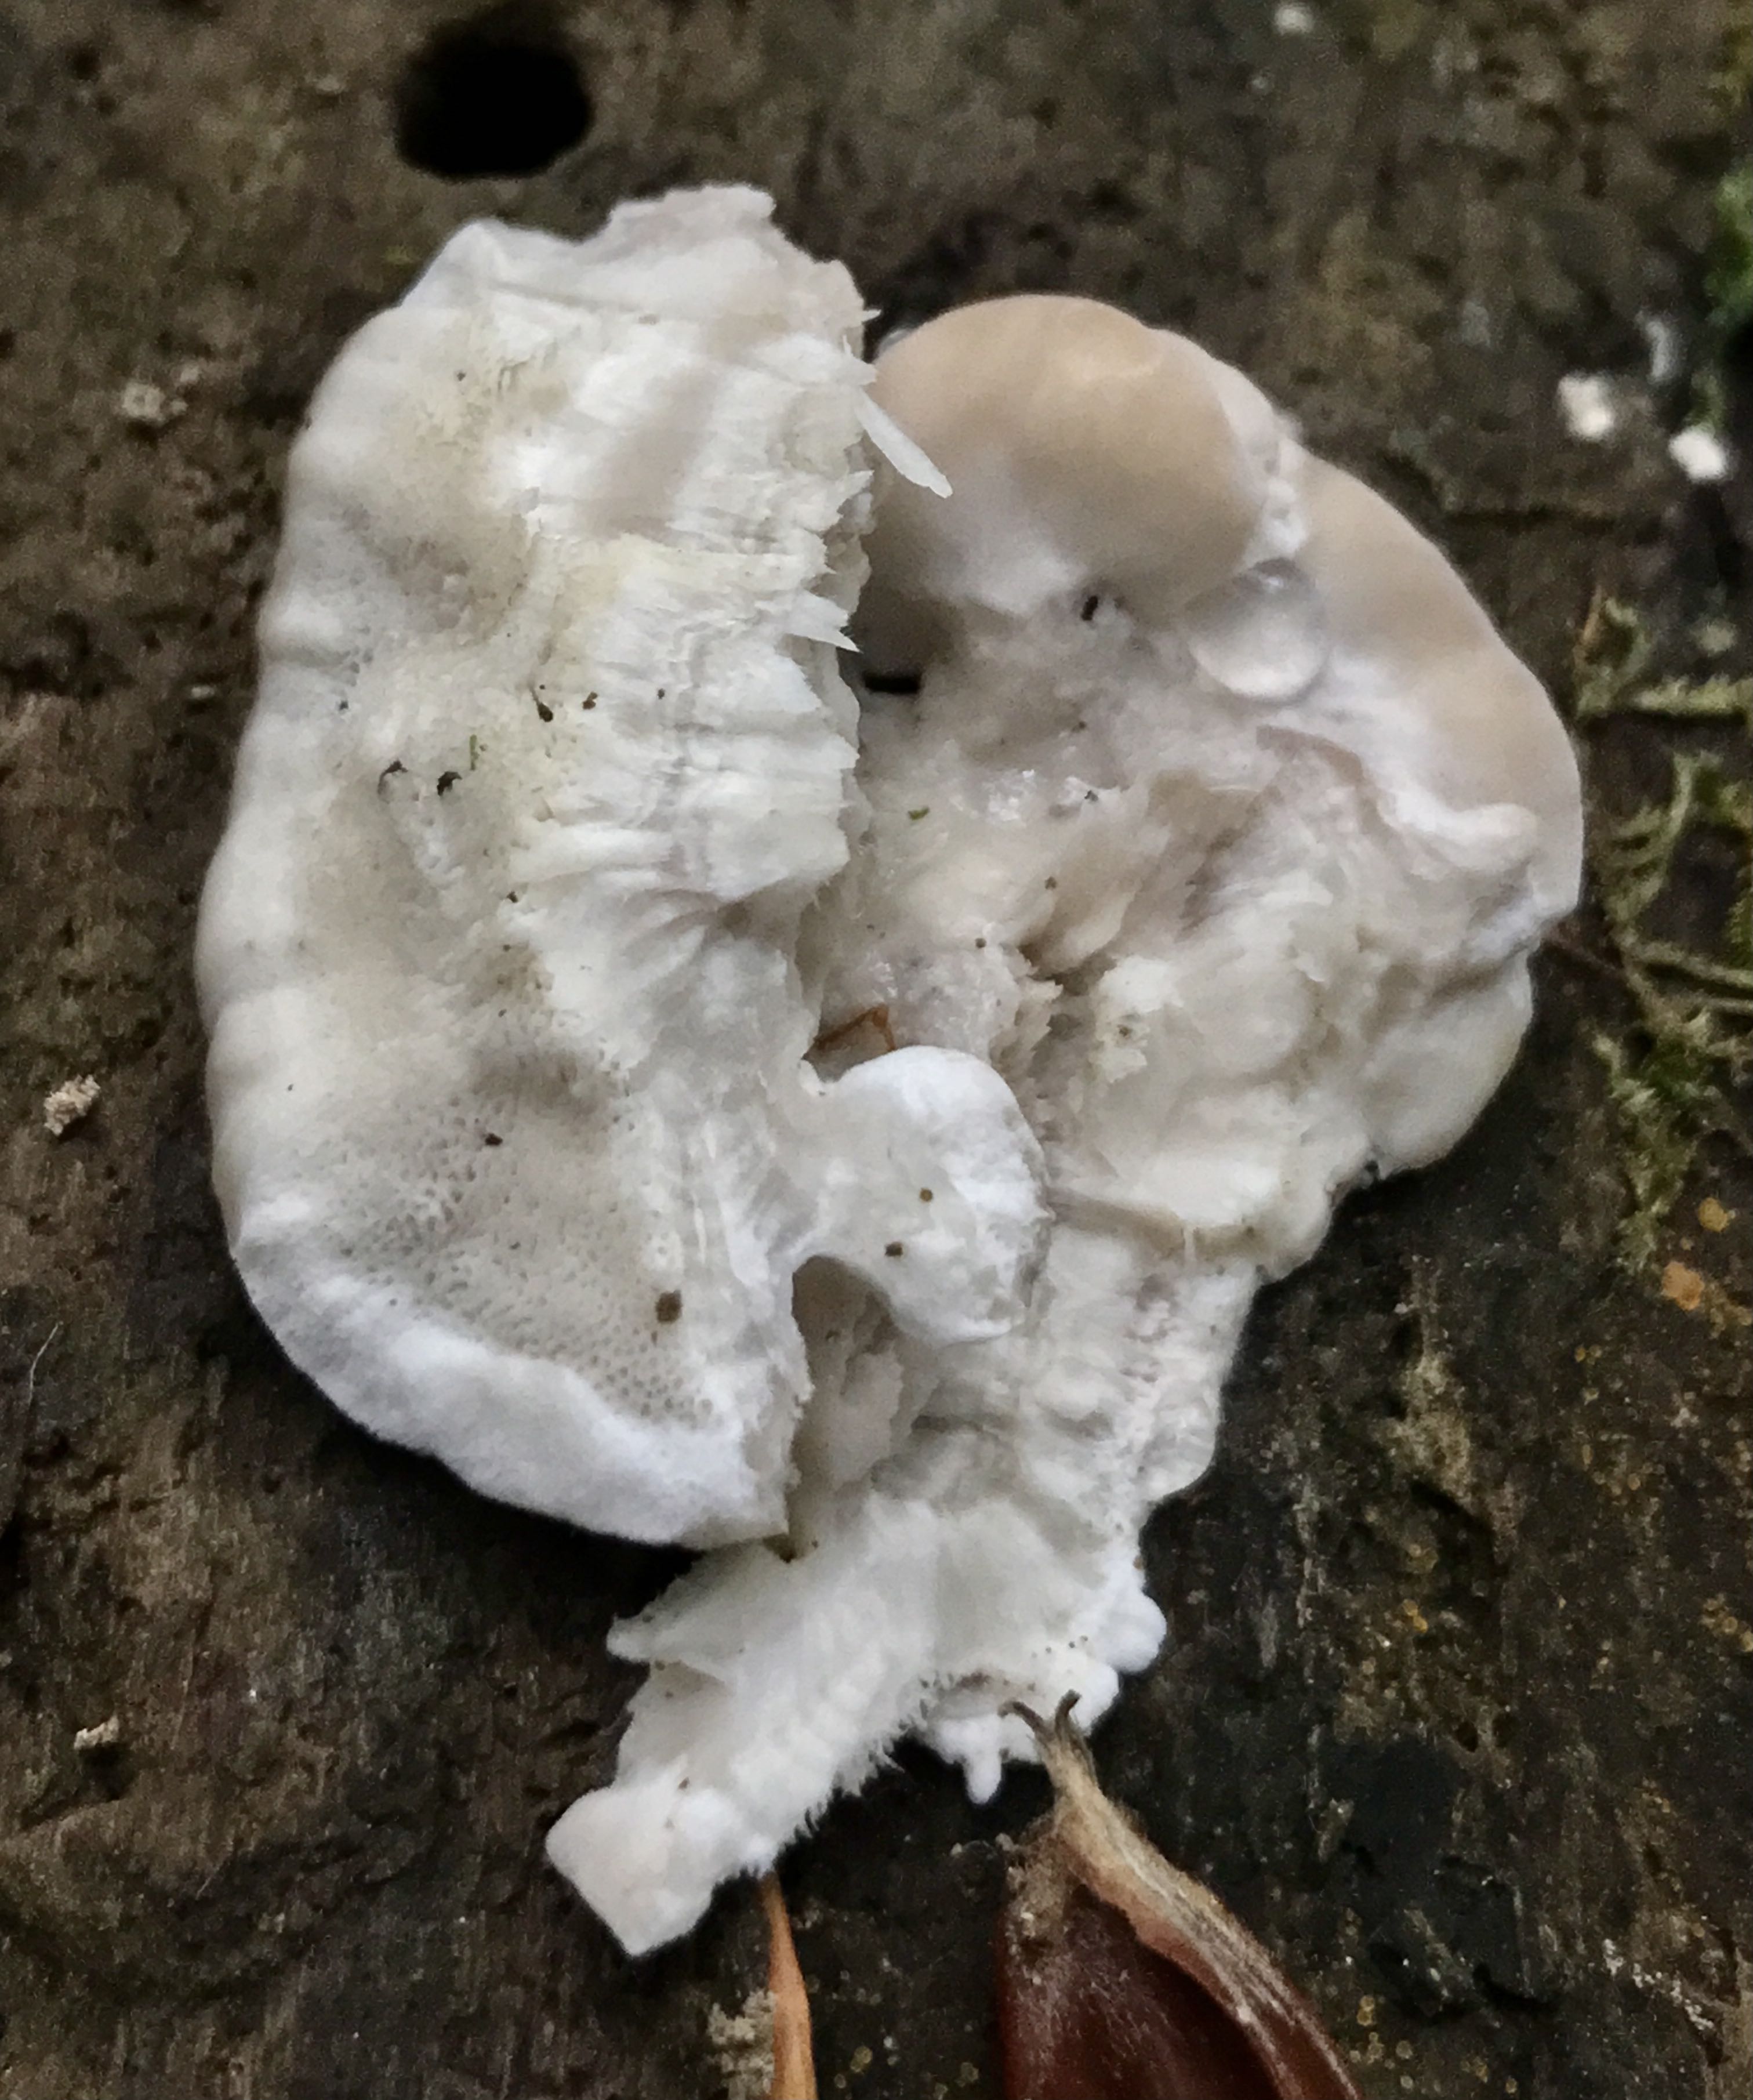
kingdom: Fungi
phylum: Basidiomycota
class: Agaricomycetes
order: Polyporales
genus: Amaropostia
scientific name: Amaropostia stiptica
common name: bitter kødporesvamp
